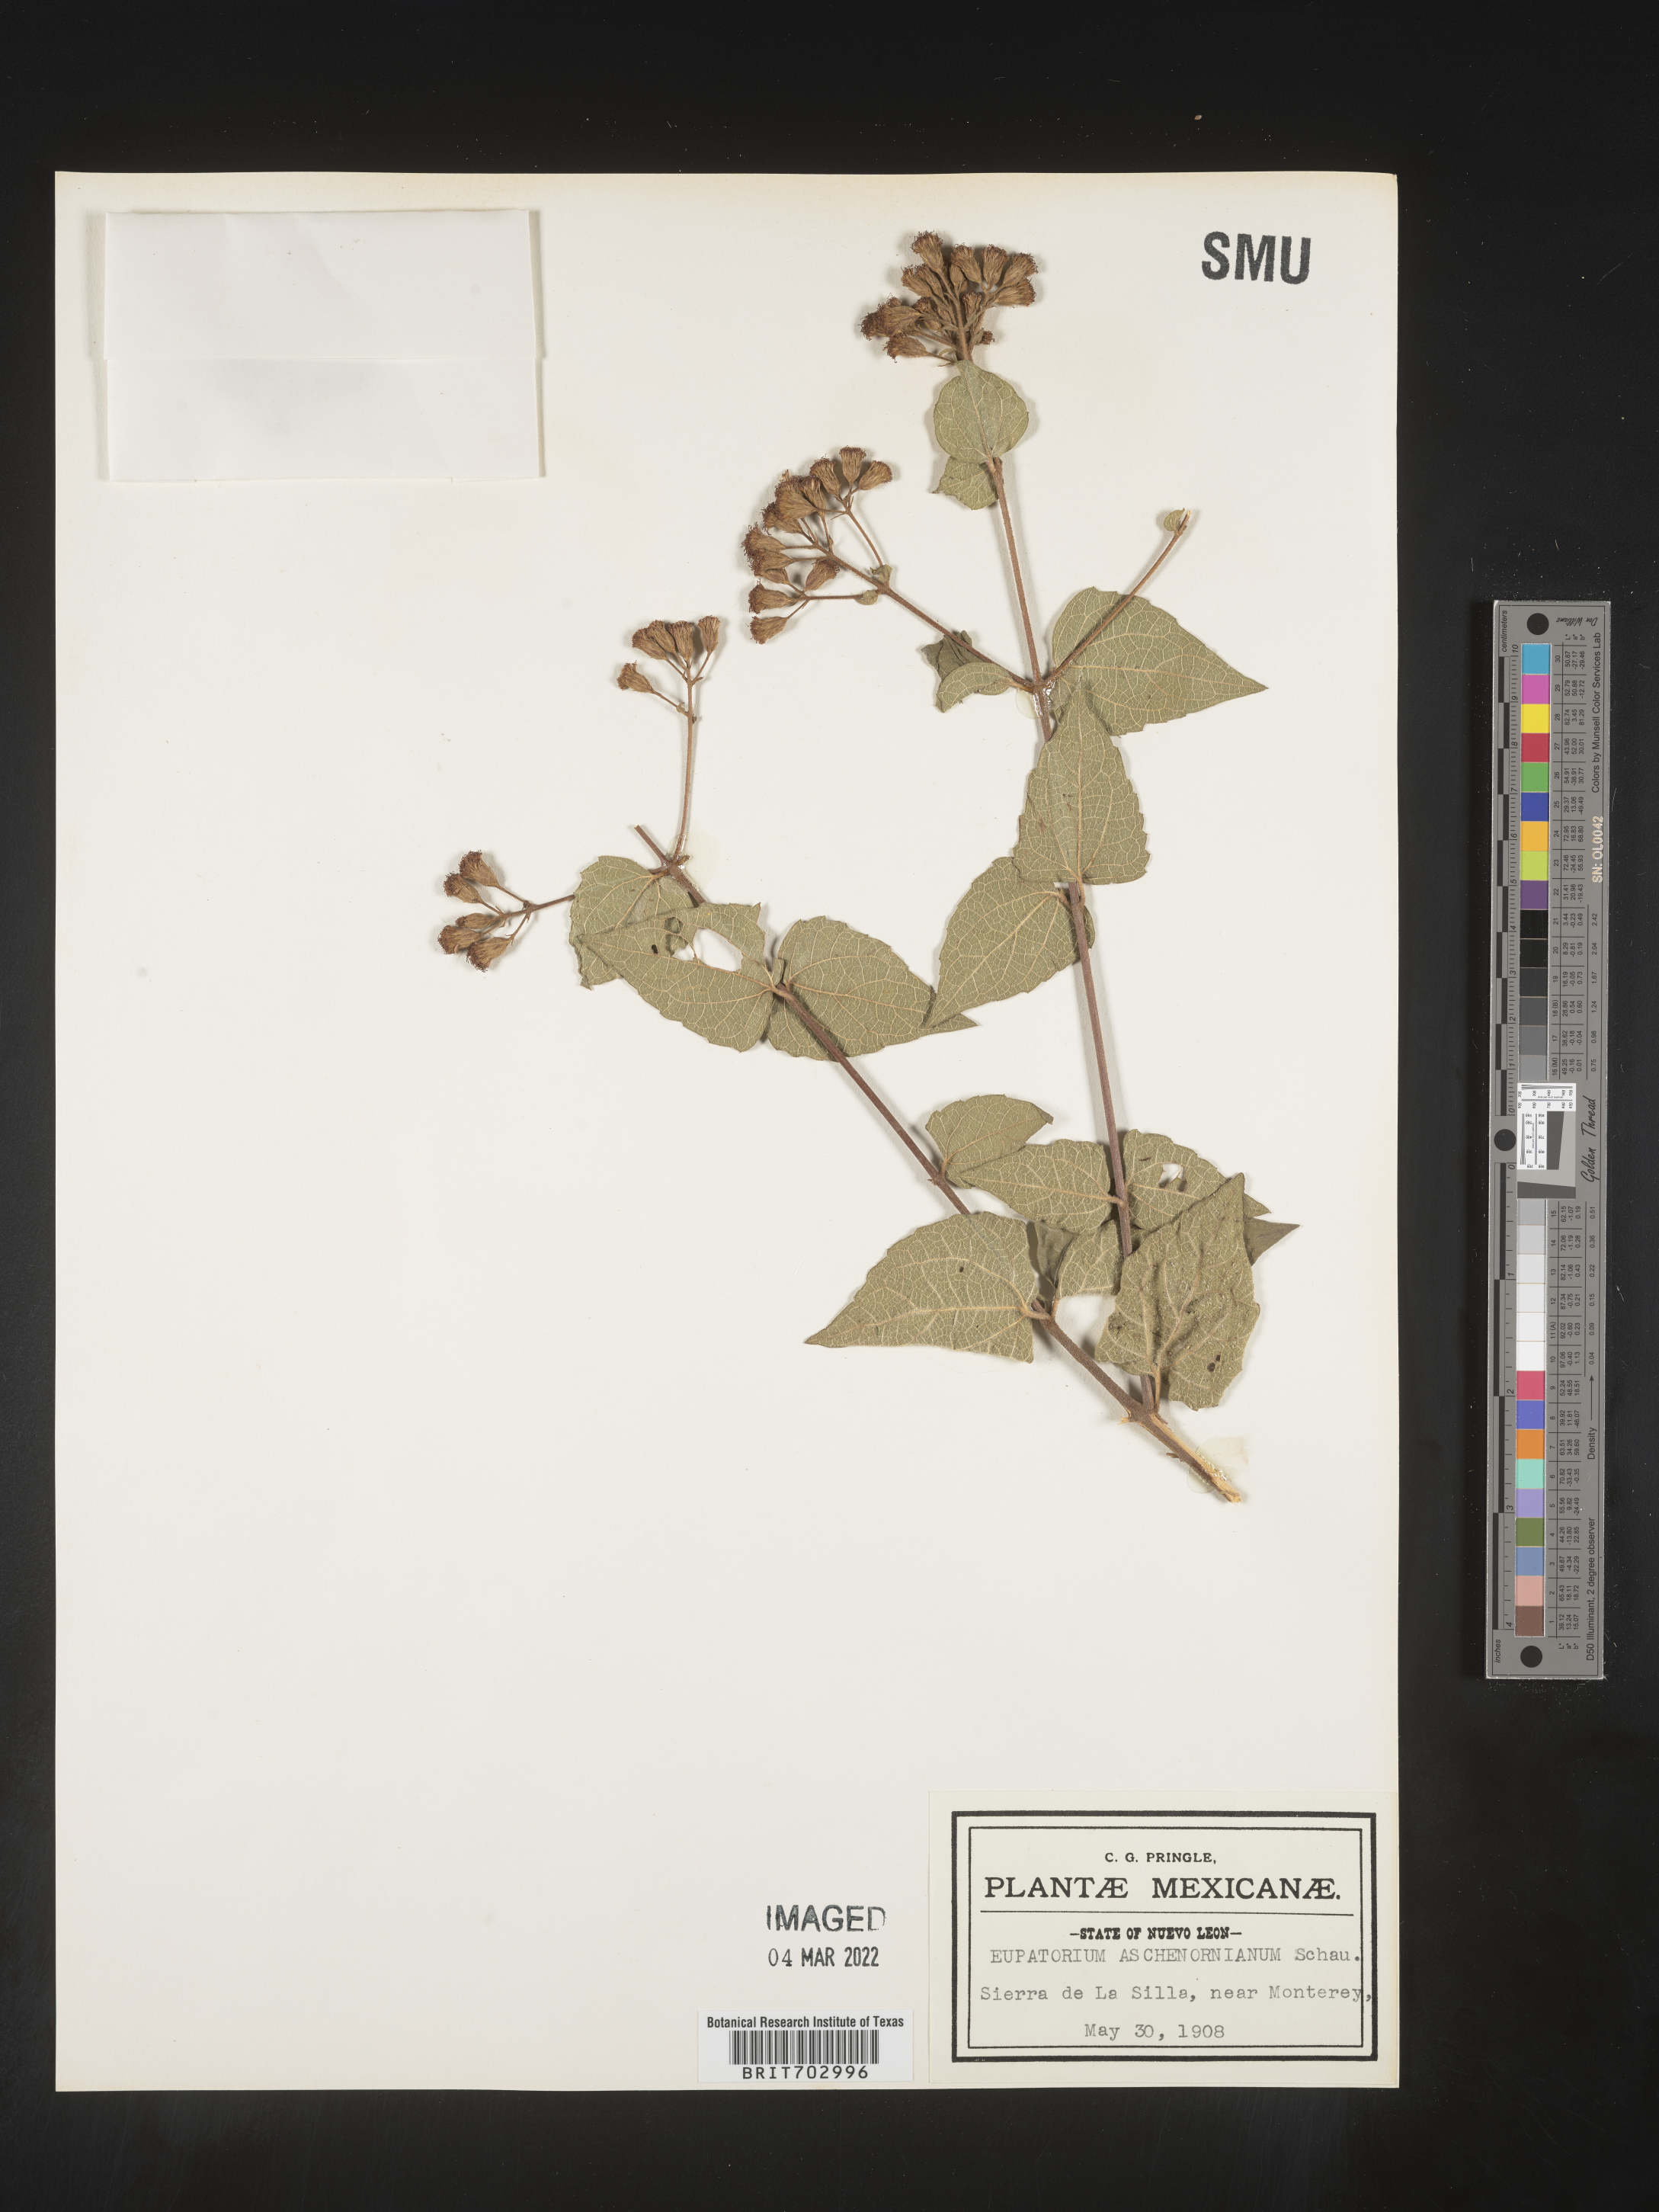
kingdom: Plantae
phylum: Tracheophyta
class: Magnoliopsida
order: Asterales
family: Asteraceae
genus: Eupatorium
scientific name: Eupatorium
